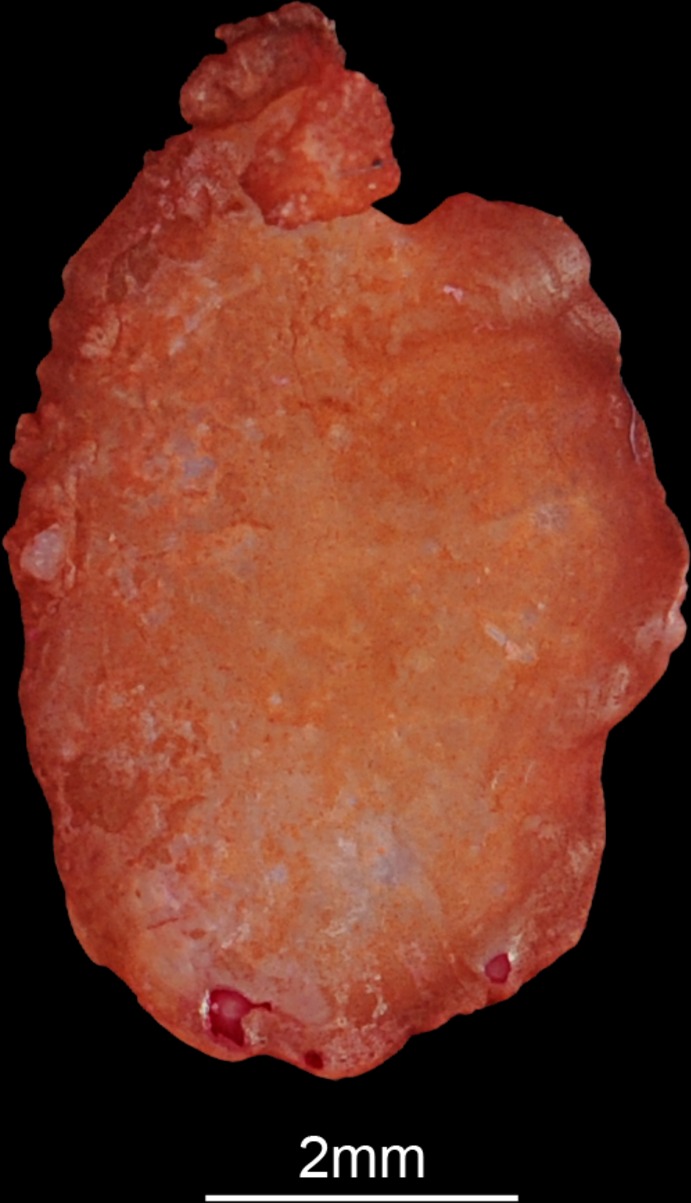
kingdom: Animalia
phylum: Chordata
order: Perciformes
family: Cichlidae
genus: Cichlasoma
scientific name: Cichlasoma
